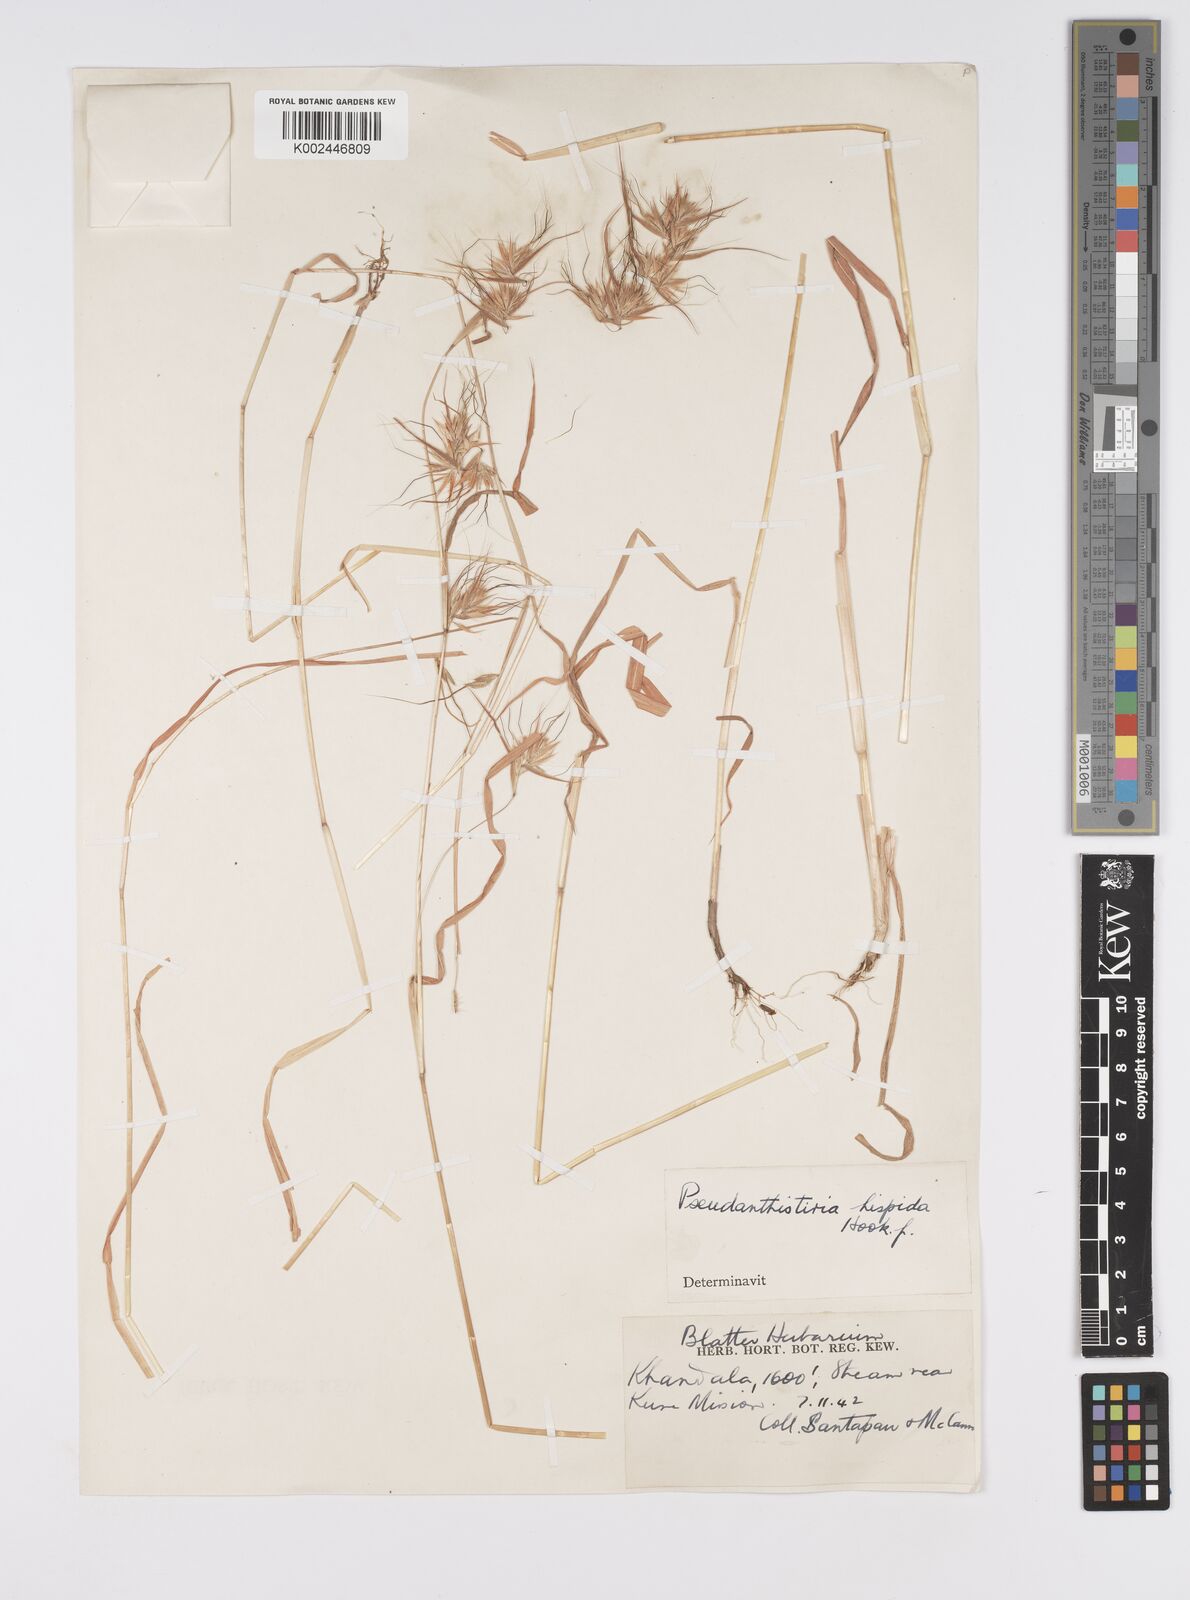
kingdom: Plantae
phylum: Tracheophyta
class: Liliopsida
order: Poales
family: Poaceae
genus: Pseudanthistiria
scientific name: Pseudanthistiria heteroclita
